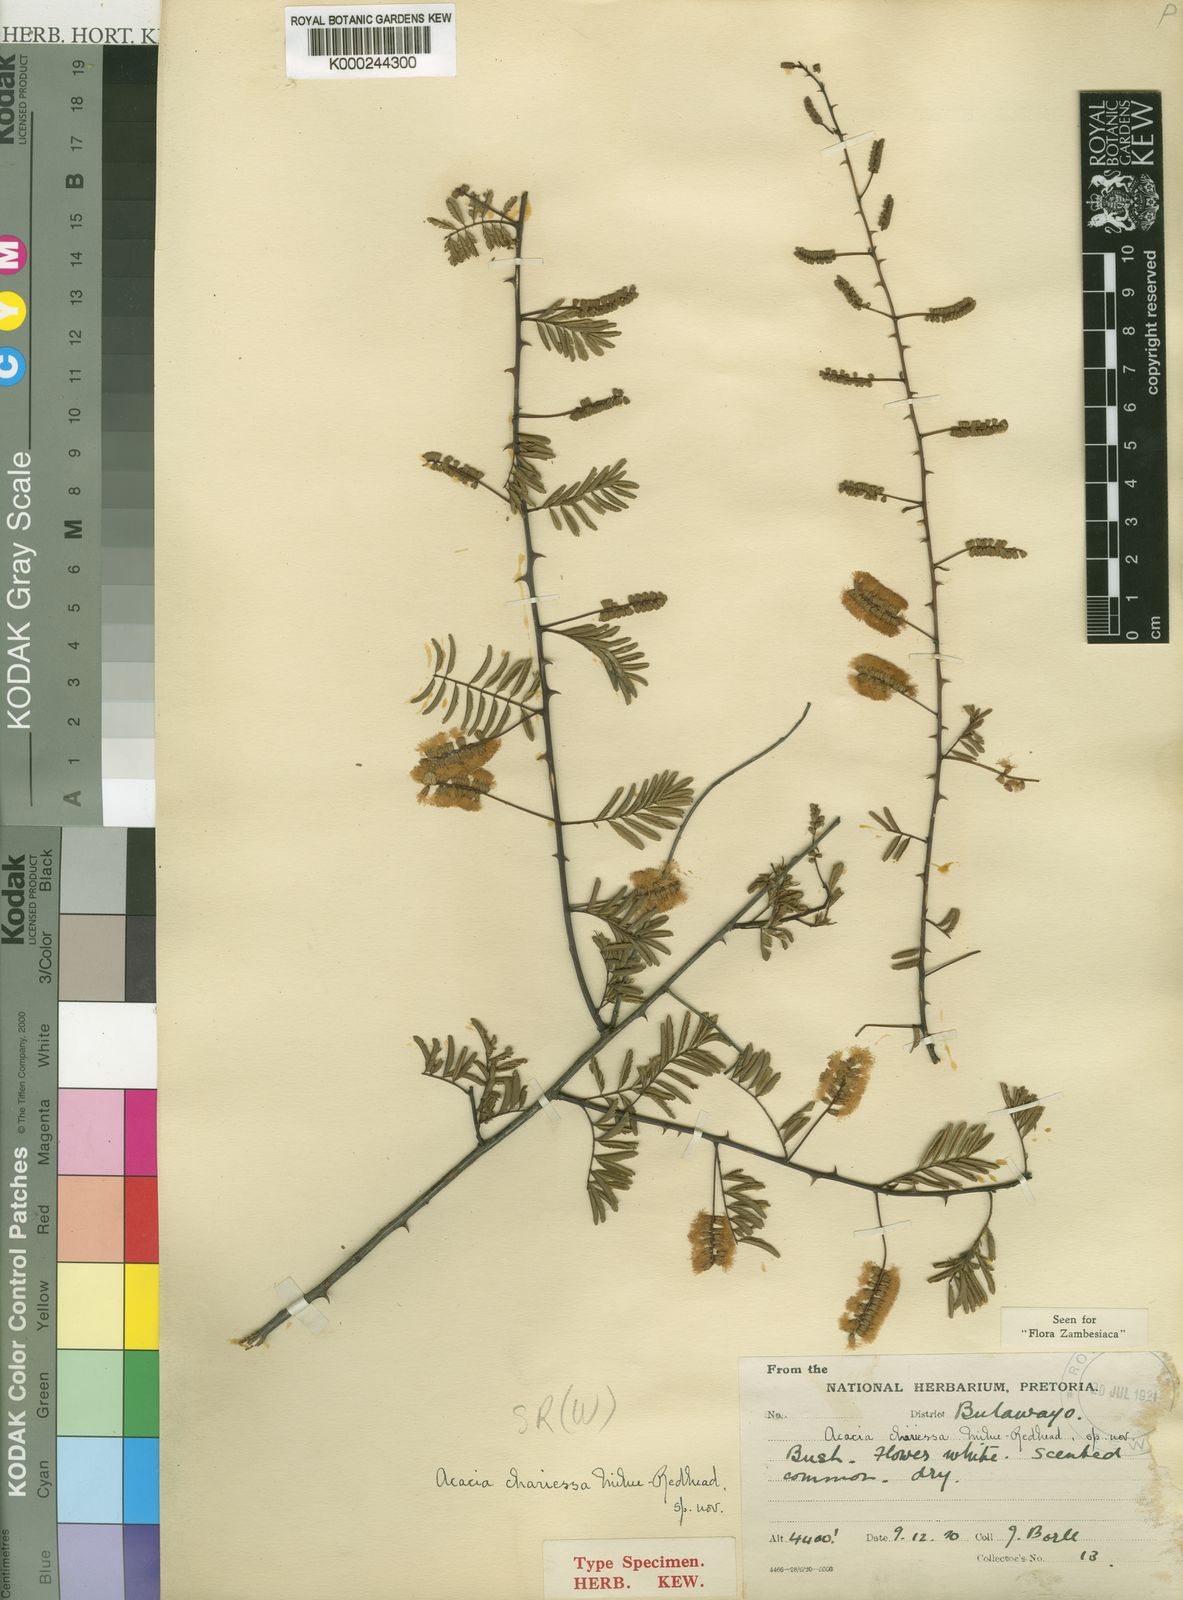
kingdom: Plantae
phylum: Tracheophyta
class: Magnoliopsida
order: Fabales
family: Fabaceae
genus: Senegalia
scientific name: Senegalia chariessa
